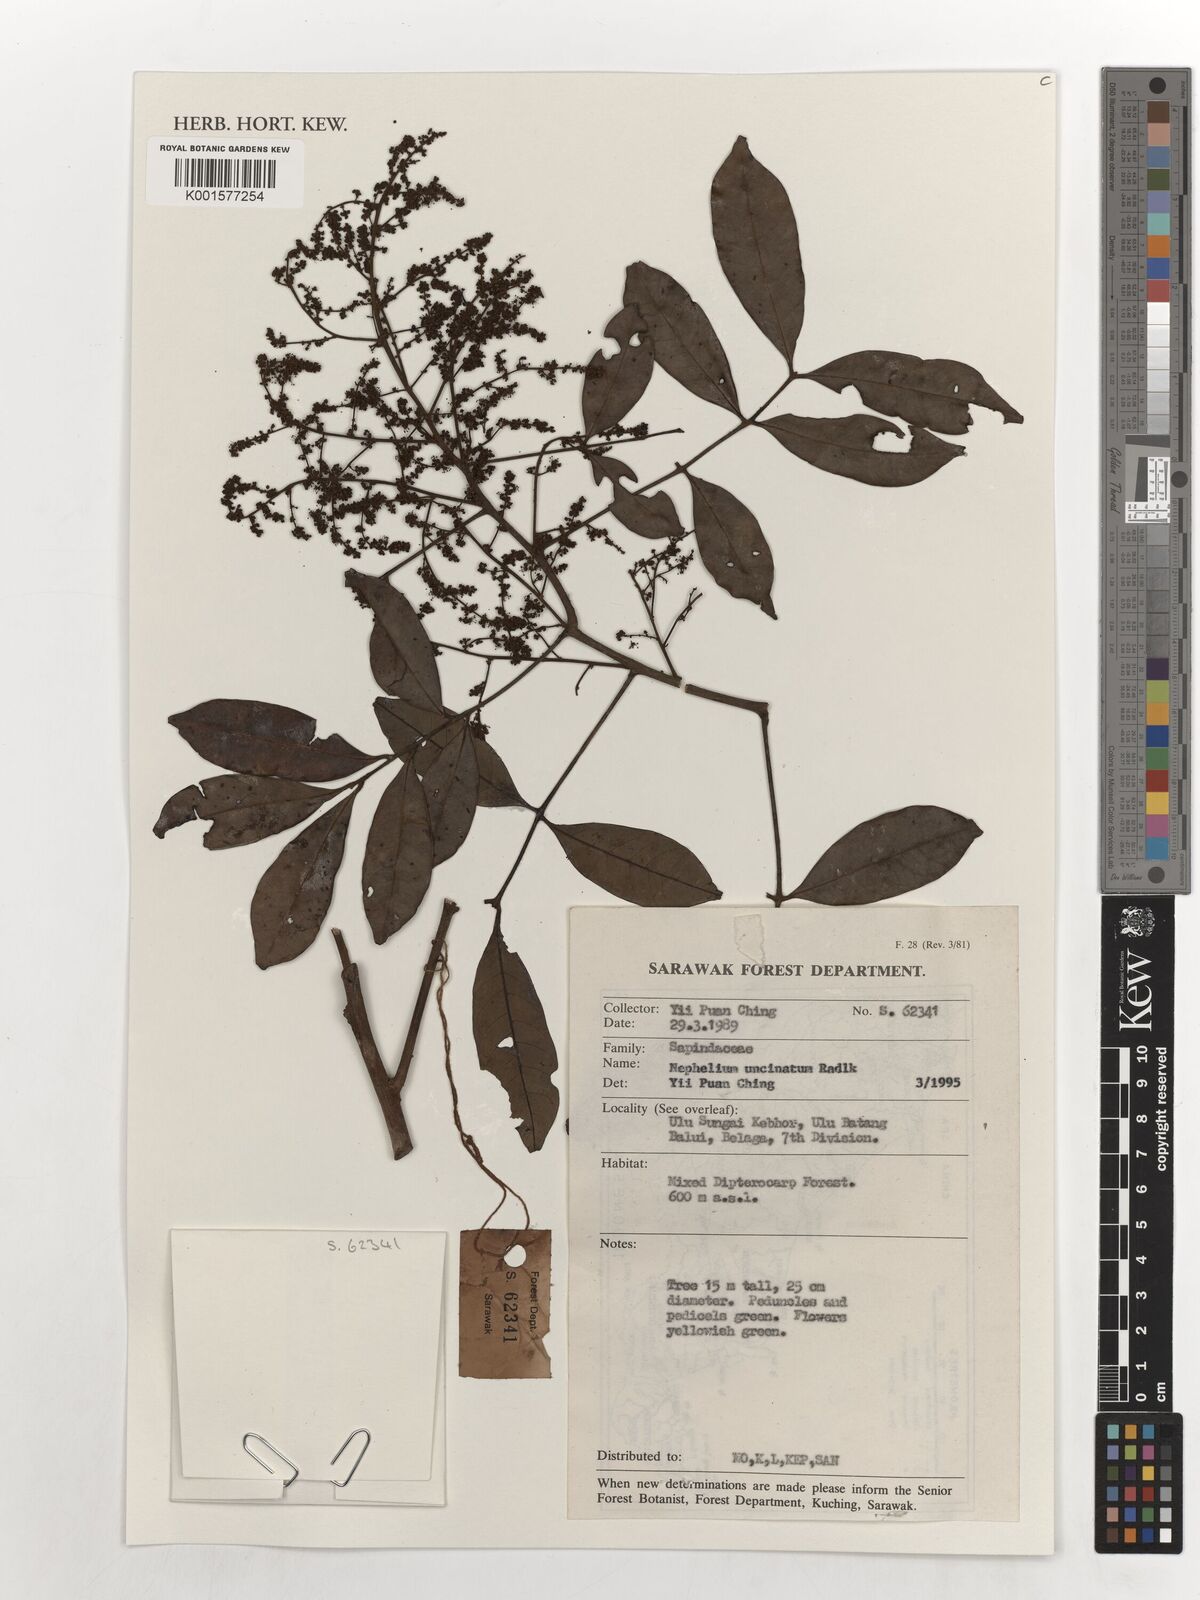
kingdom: Plantae
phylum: Tracheophyta
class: Magnoliopsida
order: Sapindales
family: Sapindaceae
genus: Nephelium
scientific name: Nephelium uncinatum
